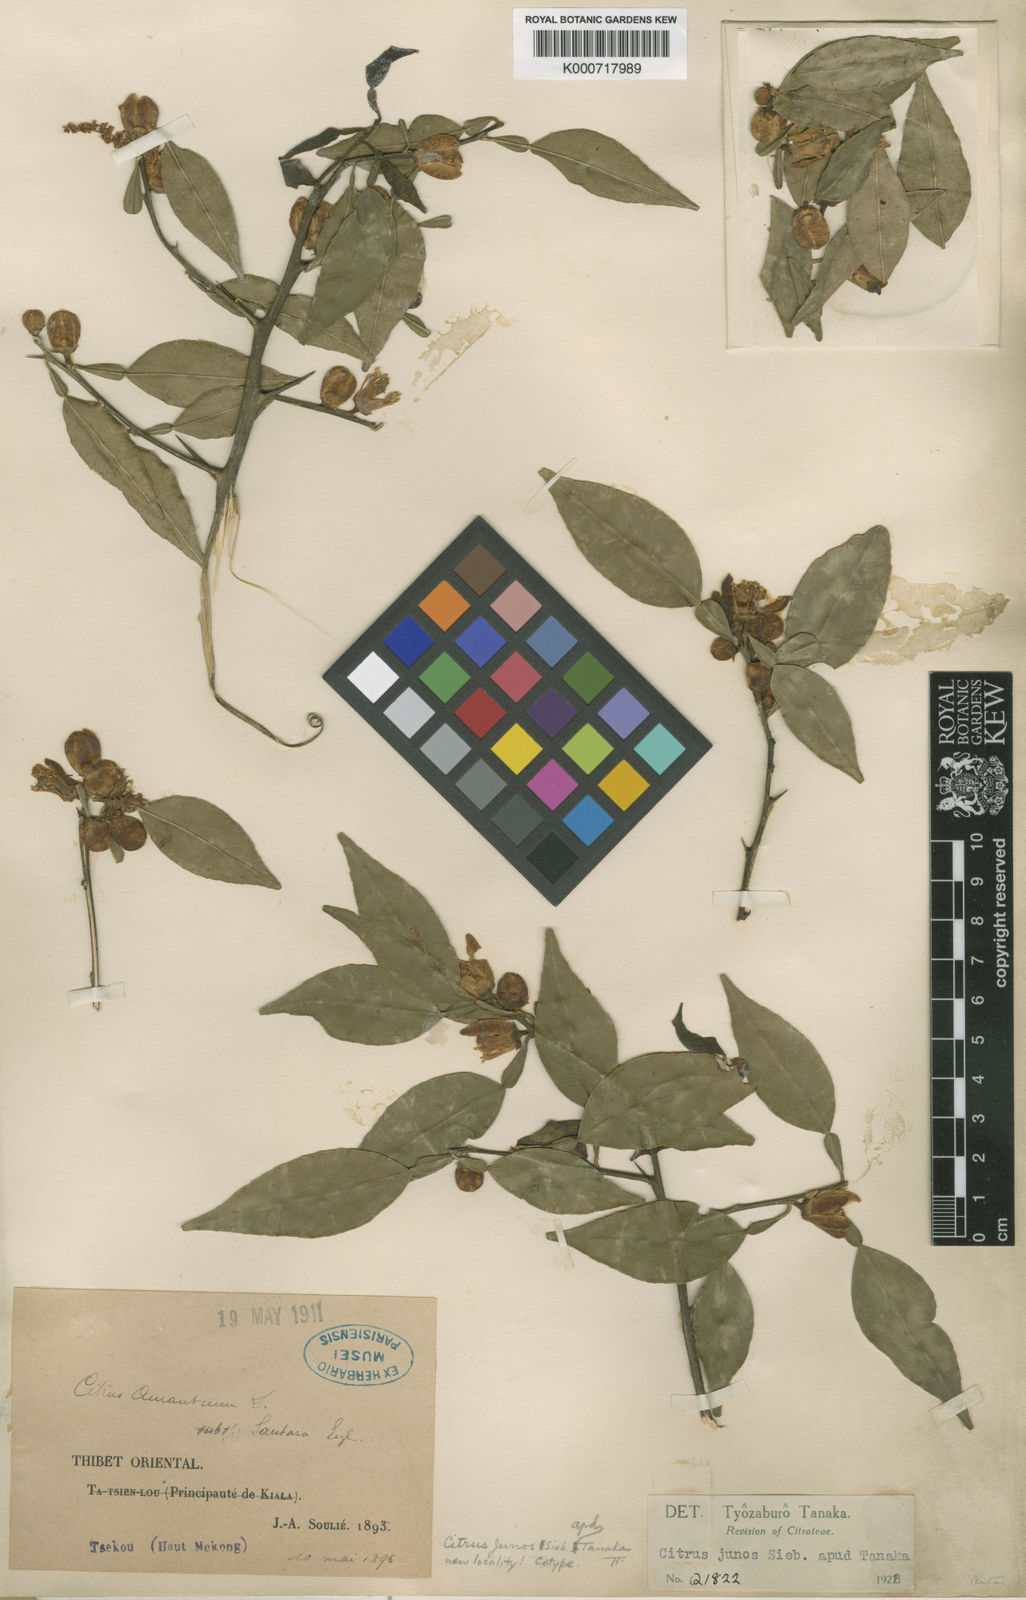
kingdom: Plantae
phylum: Tracheophyta
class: Magnoliopsida
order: Sapindales
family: Rutaceae
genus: Citrus
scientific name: Citrus junos
